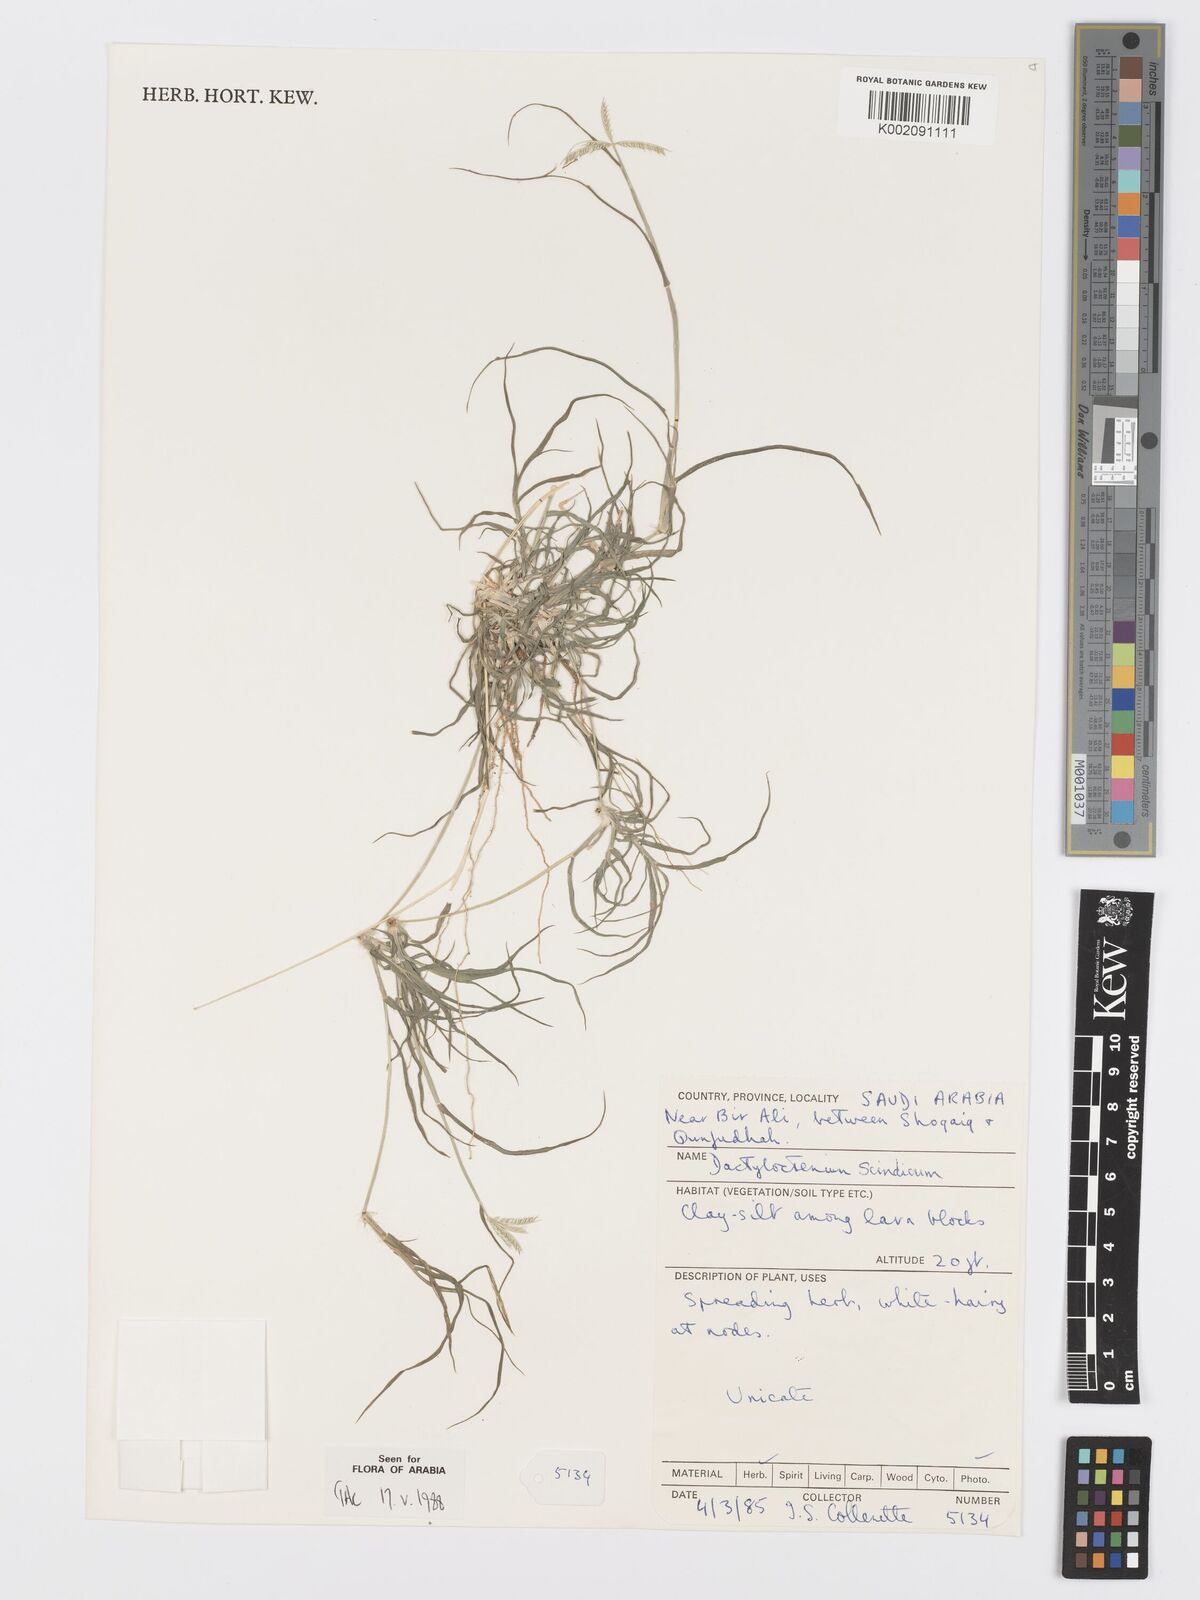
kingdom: Plantae
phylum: Tracheophyta
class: Liliopsida
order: Poales
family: Poaceae
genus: Dactyloctenium
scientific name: Dactyloctenium scindicum
